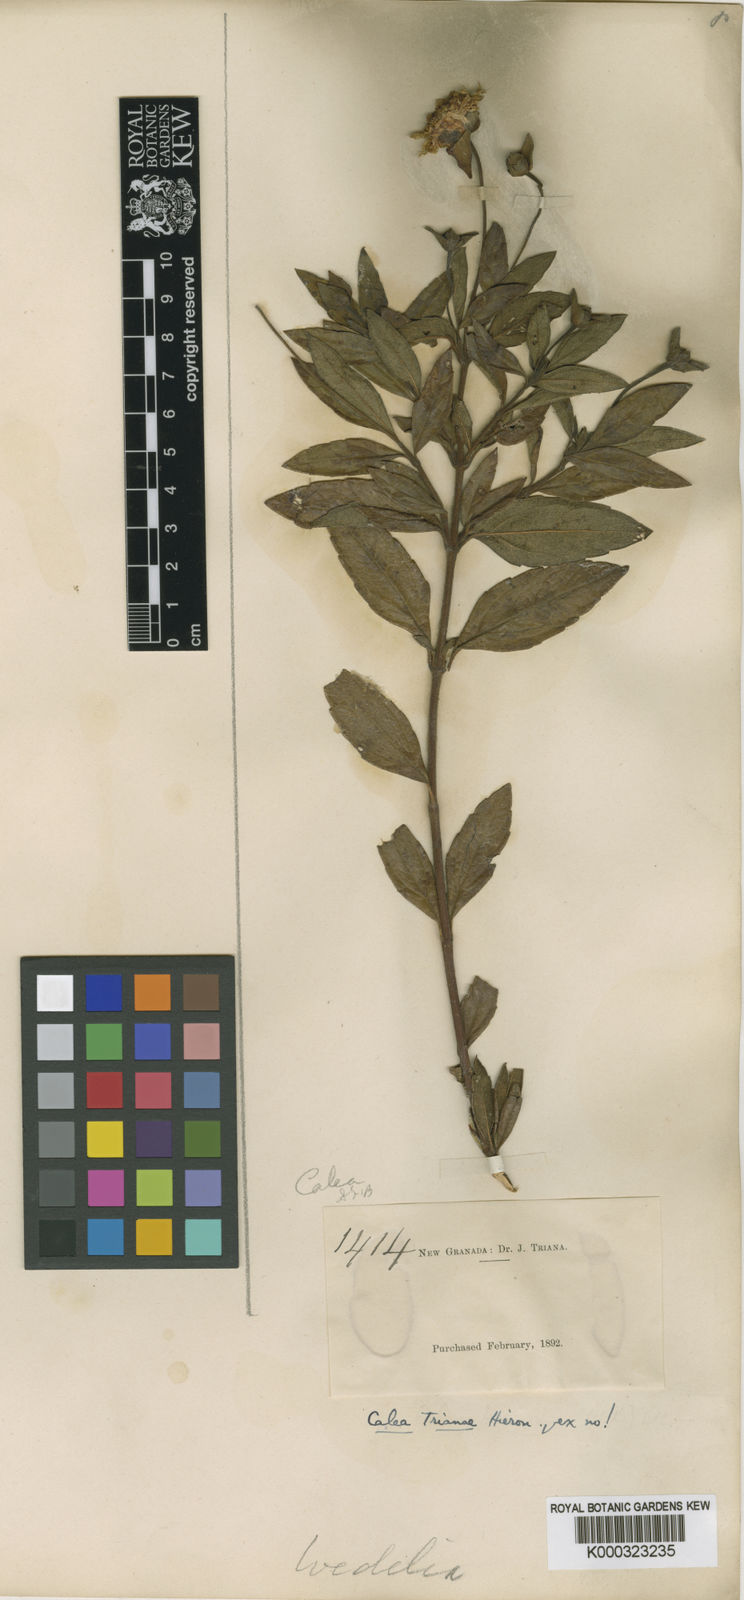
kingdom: Plantae
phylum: Tracheophyta
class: Magnoliopsida
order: Asterales
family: Asteraceae
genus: Calea
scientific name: Calea peruviana
